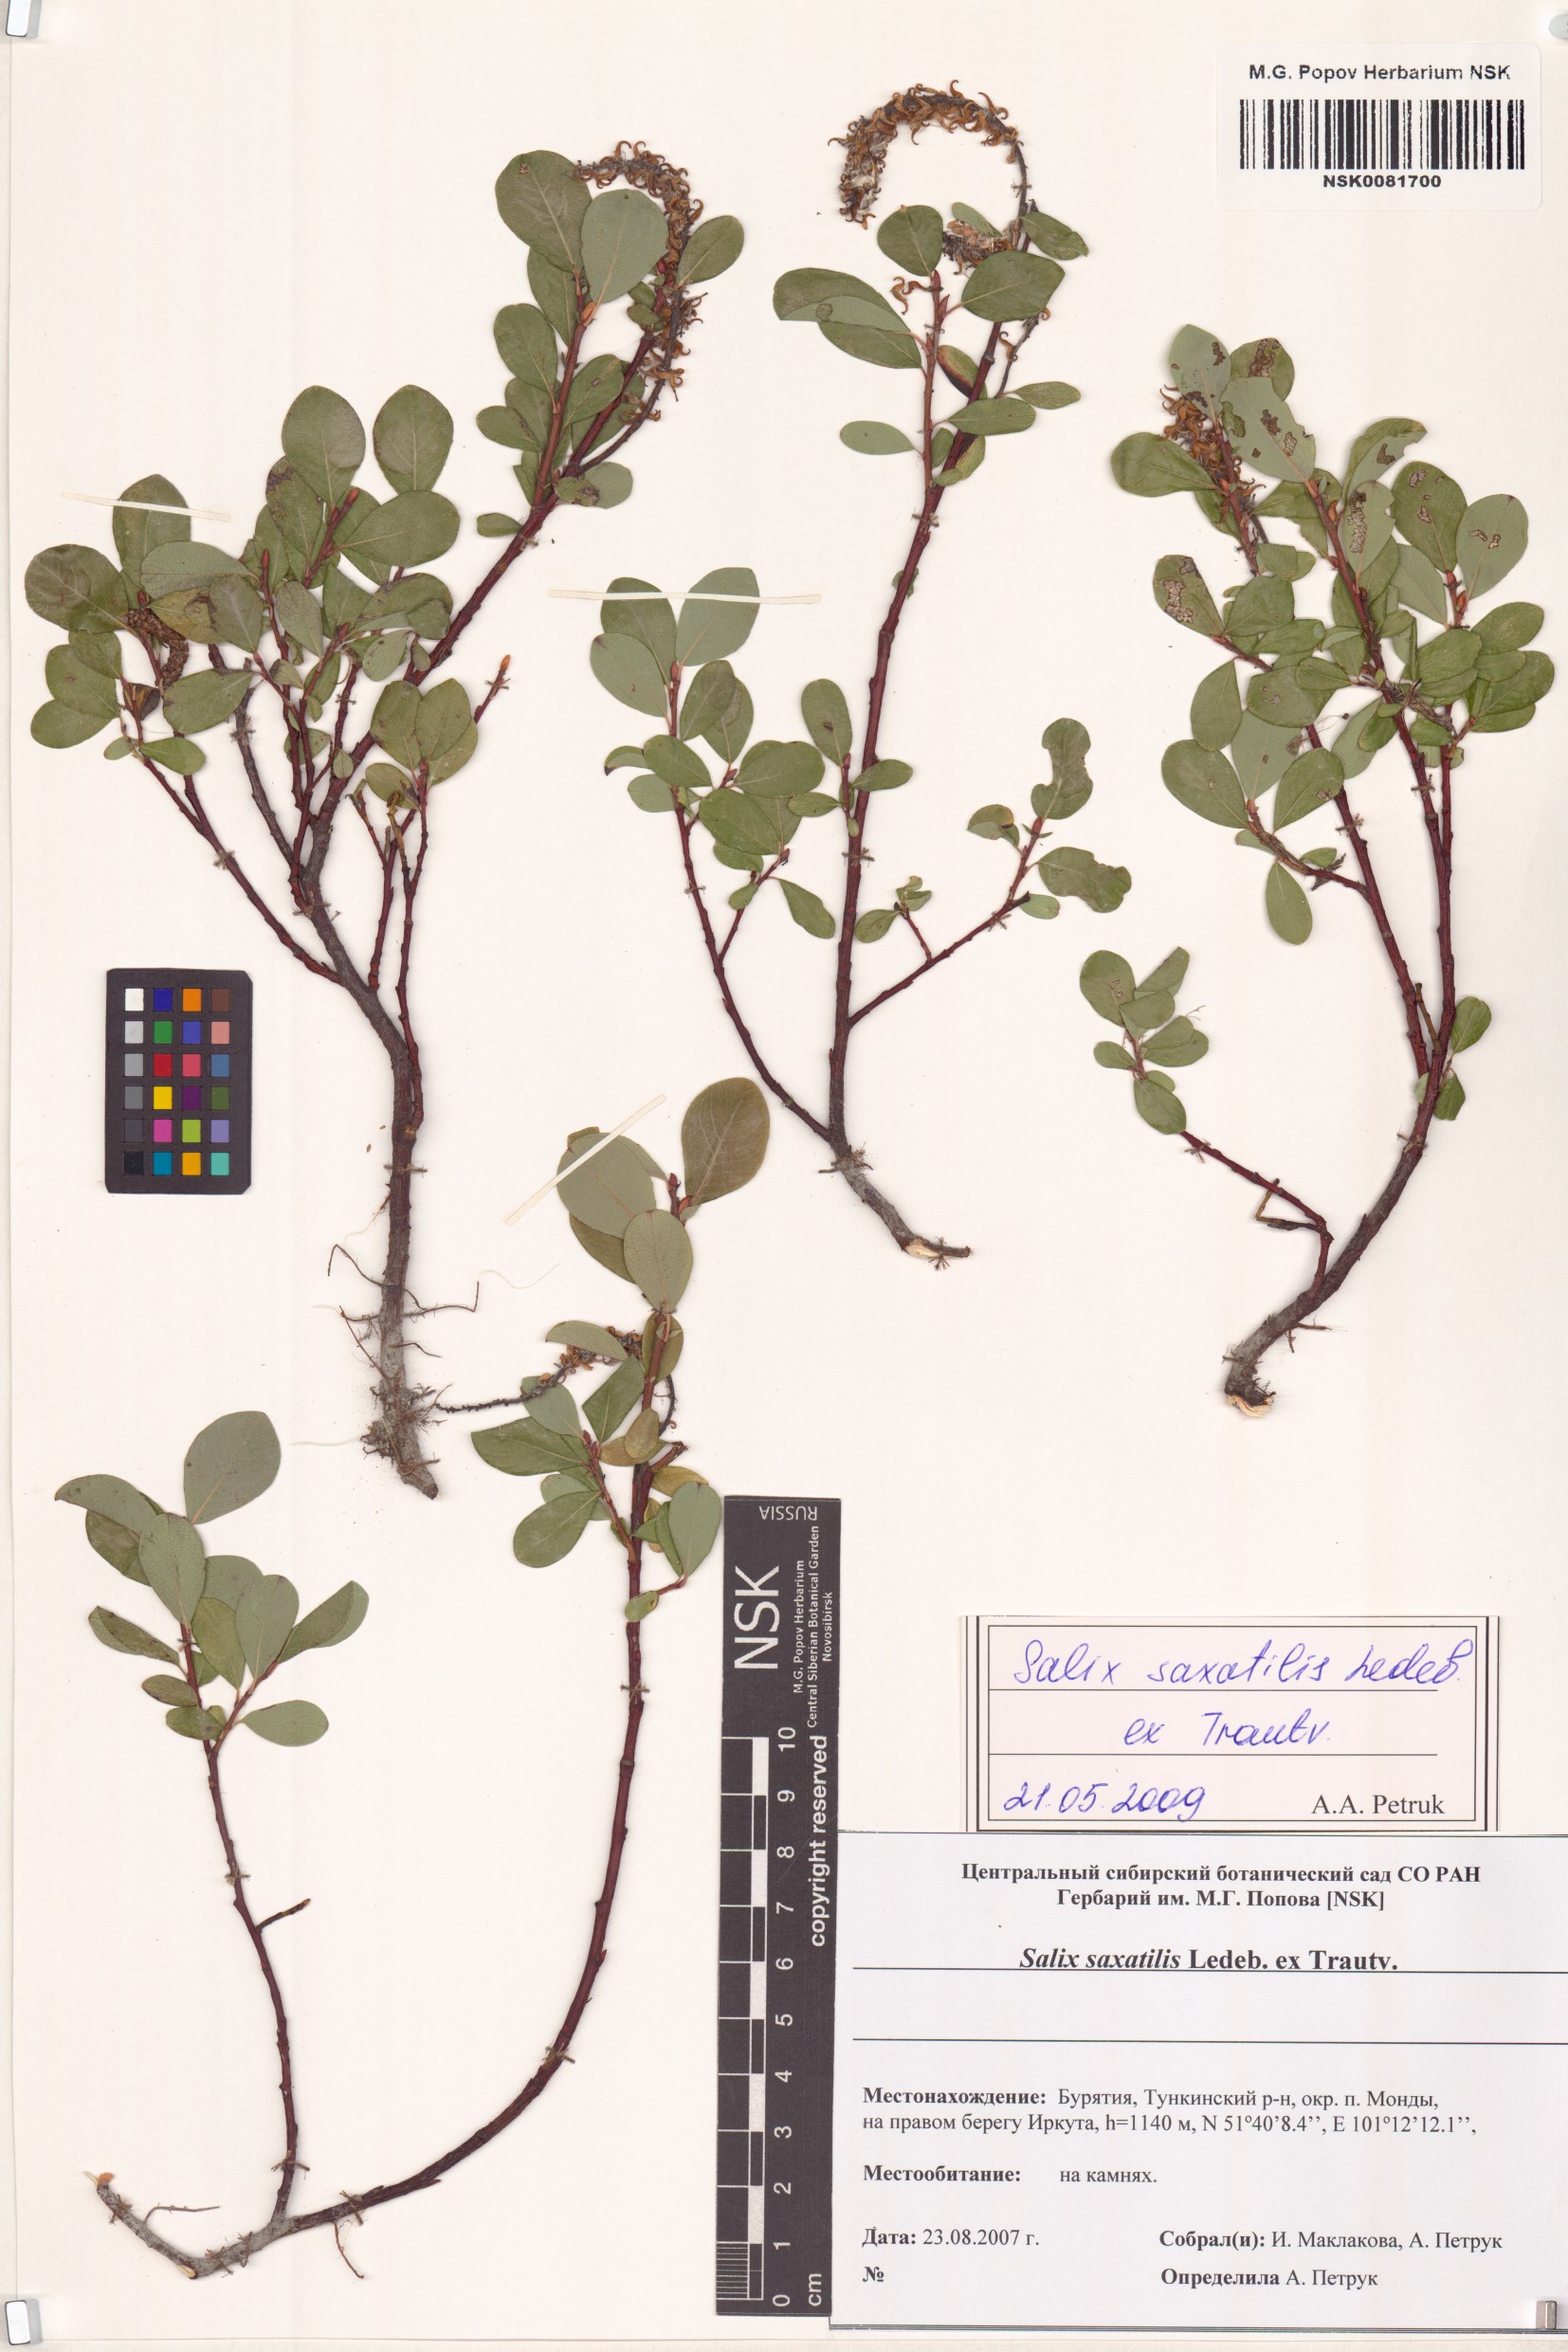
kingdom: Plantae
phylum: Tracheophyta
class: Magnoliopsida
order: Malpighiales
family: Salicaceae
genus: Salix
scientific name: Salix saxatilis
